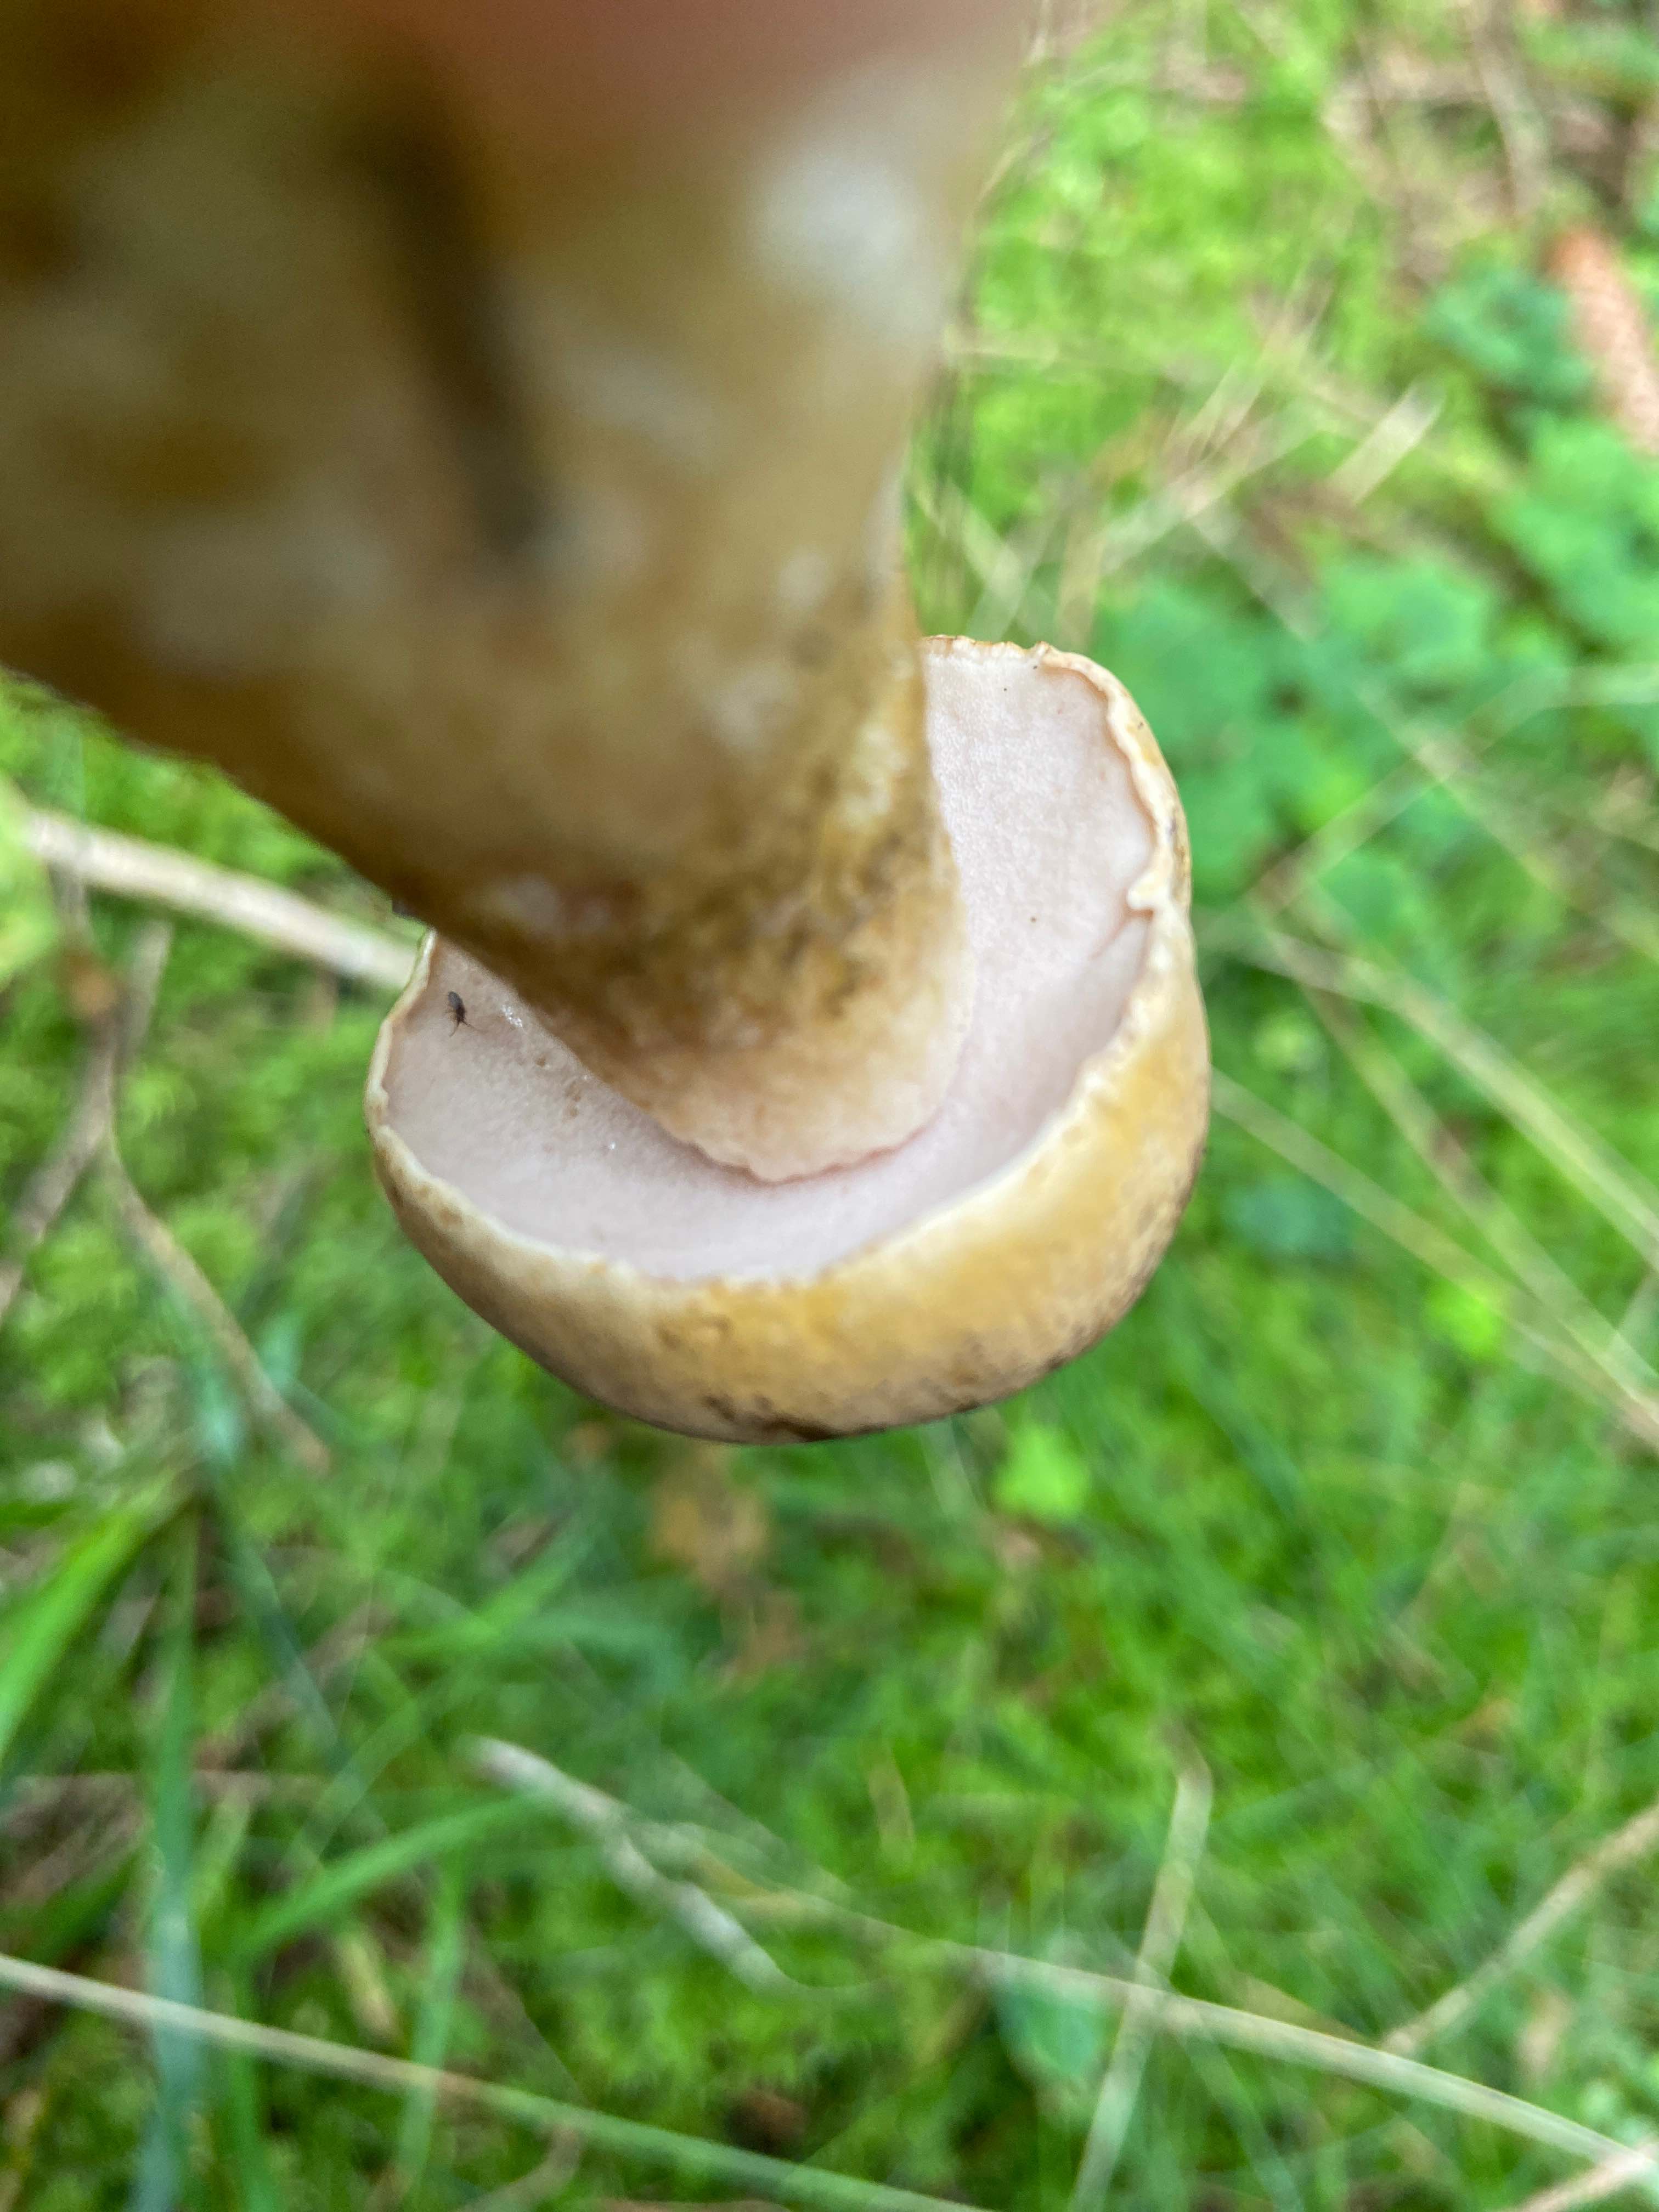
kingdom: Fungi
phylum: Basidiomycota
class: Agaricomycetes
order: Boletales
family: Boletaceae
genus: Tylopilus
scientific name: Tylopilus felleus
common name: galderørhat
